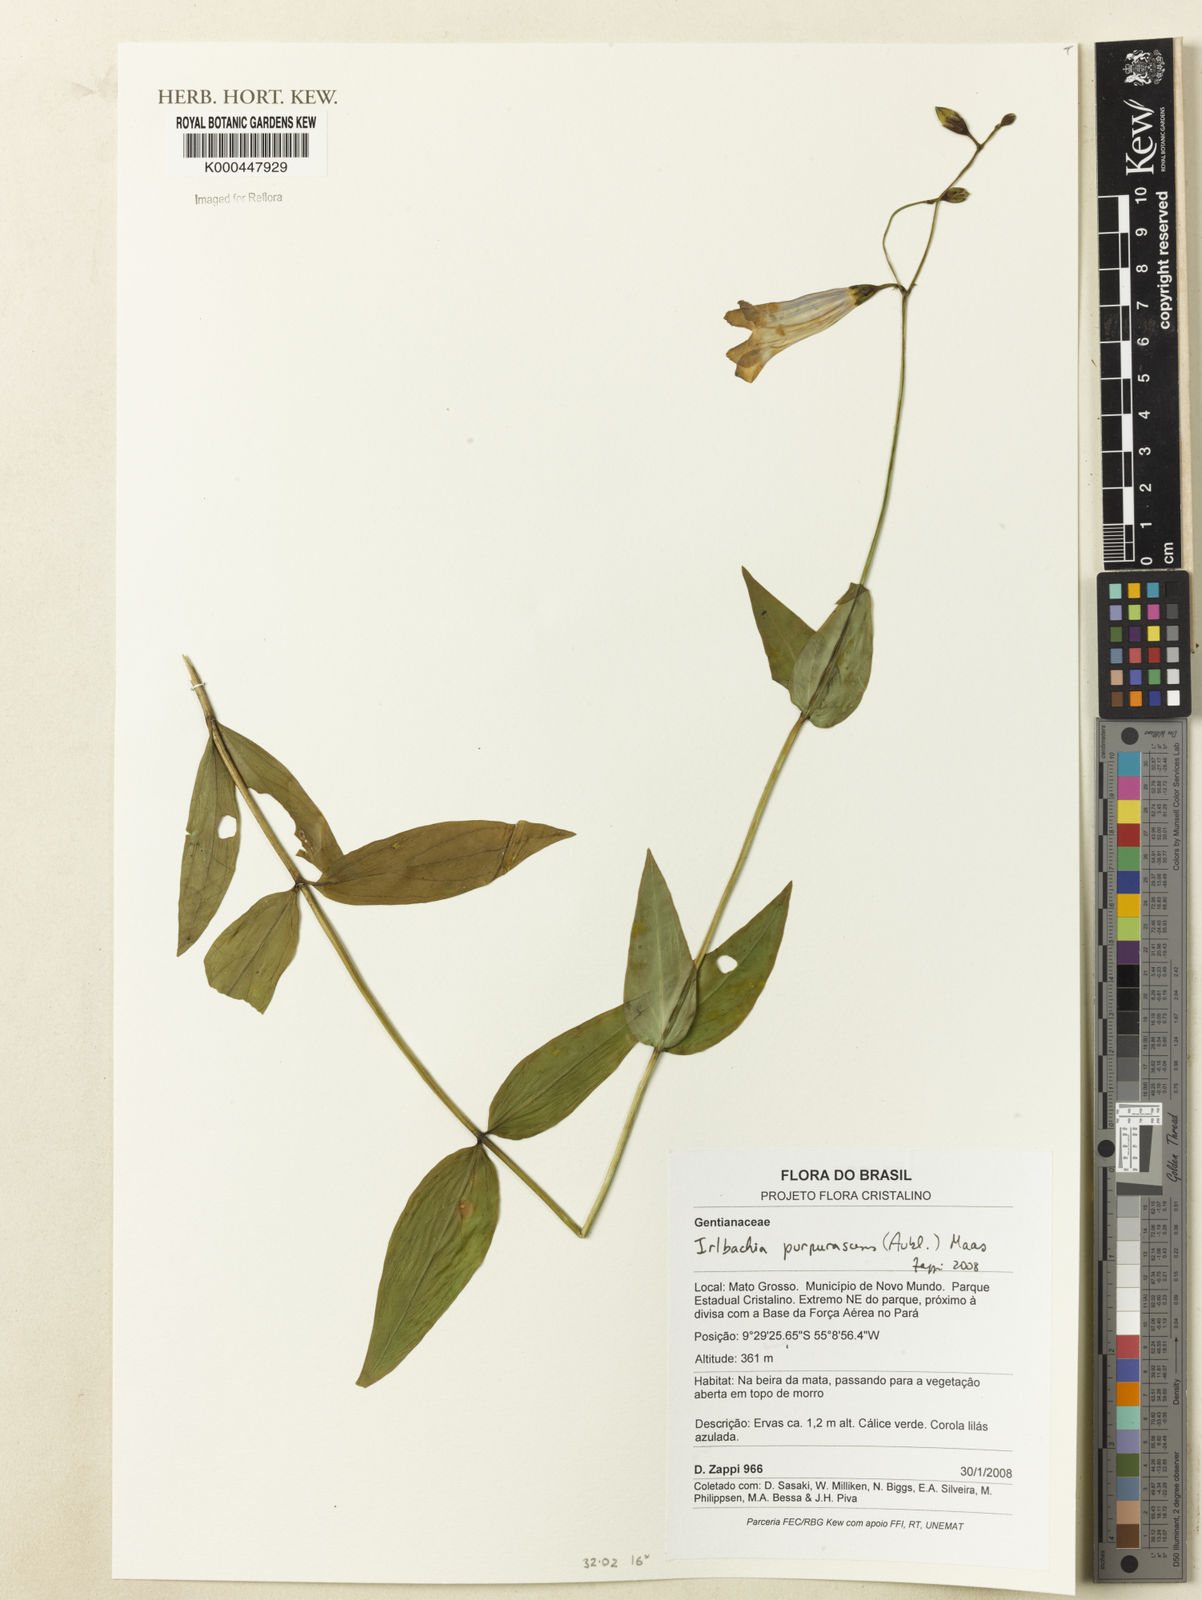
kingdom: Plantae
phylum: Tracheophyta
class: Magnoliopsida
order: Gentianales
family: Gentianaceae
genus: Chelonanthus
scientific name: Chelonanthus purpurascens
